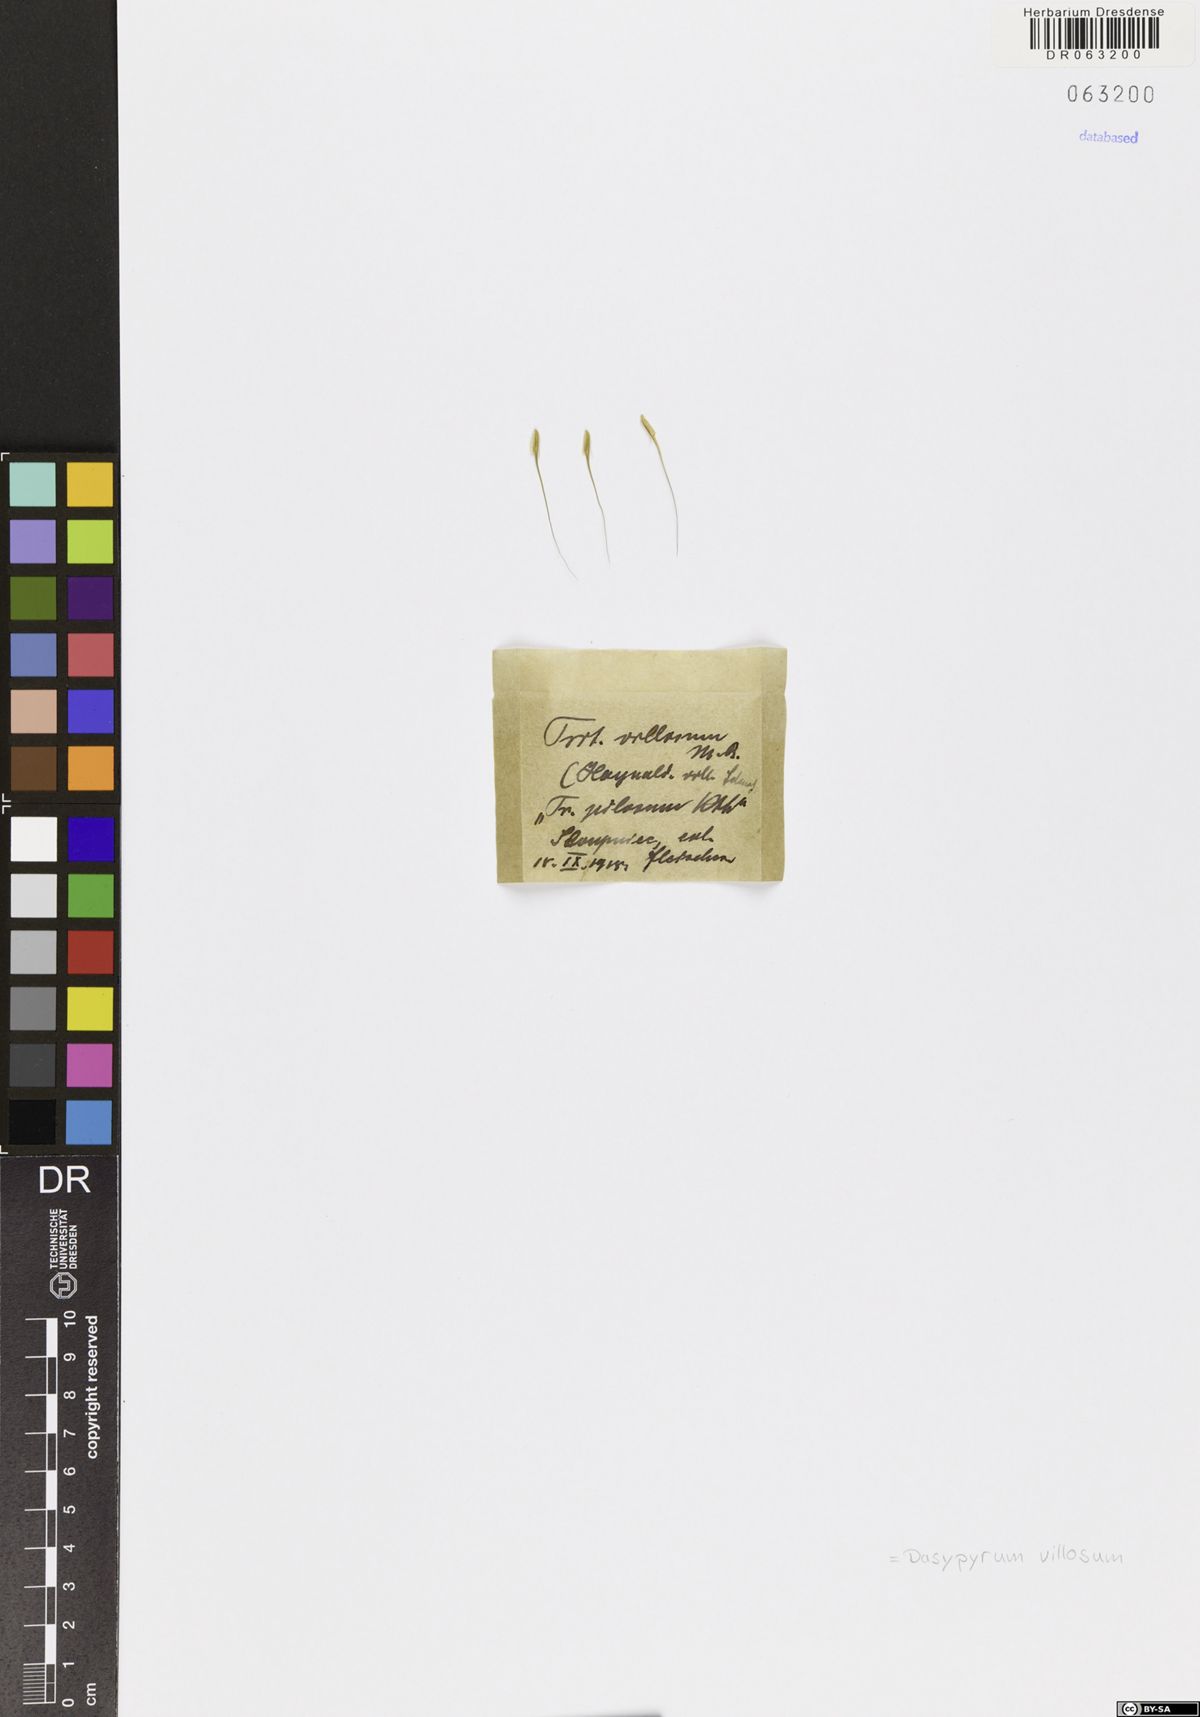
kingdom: Plantae
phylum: Tracheophyta
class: Liliopsida
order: Poales
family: Poaceae
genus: Dasypyrum
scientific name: Dasypyrum villosum
